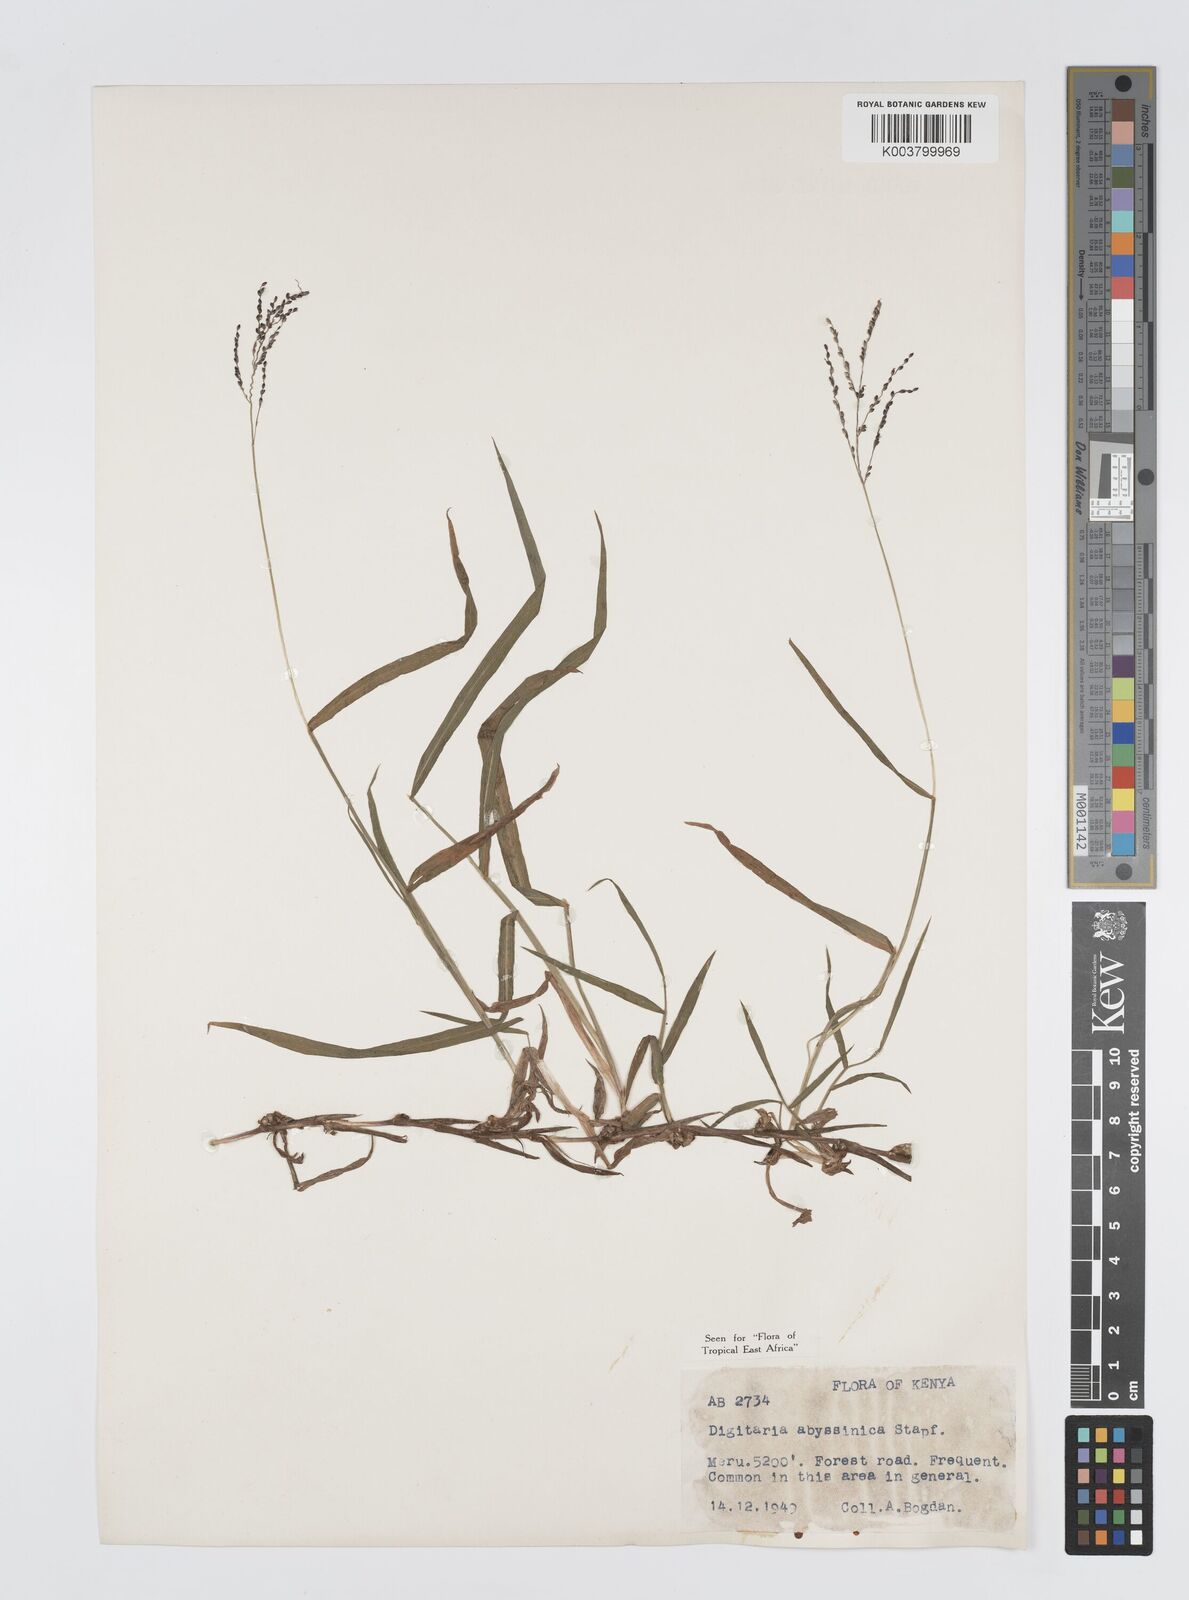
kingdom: Plantae
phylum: Tracheophyta
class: Liliopsida
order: Poales
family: Poaceae
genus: Digitaria
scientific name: Digitaria abyssinica
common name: African couchgrass
